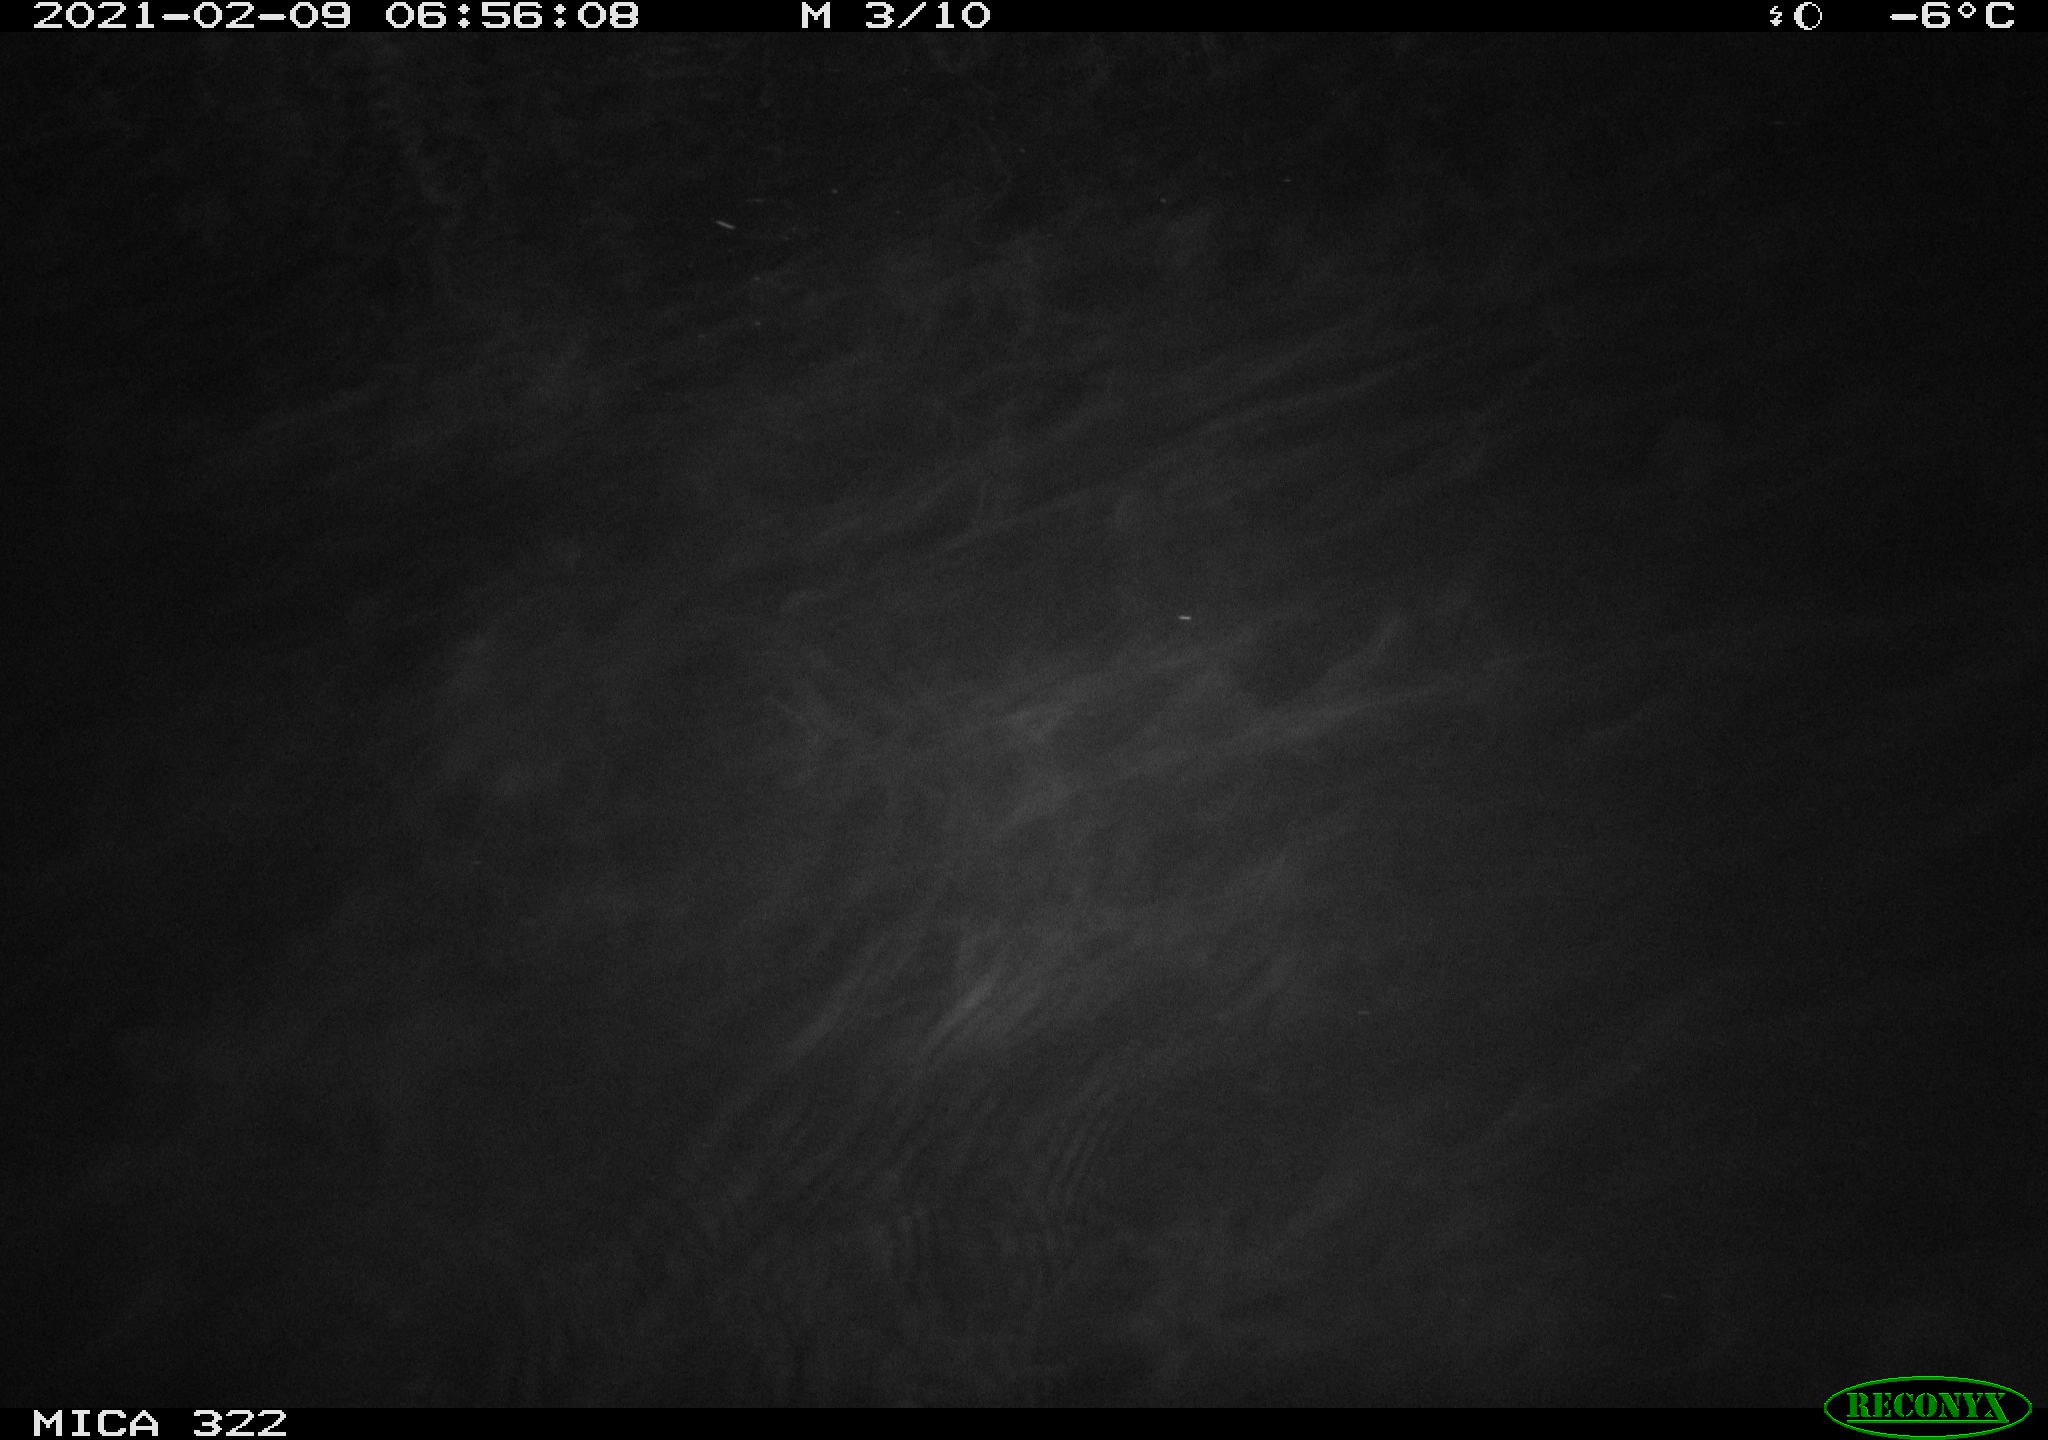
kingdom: Animalia
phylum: Chordata
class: Aves
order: Anseriformes
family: Anatidae
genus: Anas
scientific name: Anas platyrhynchos
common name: Mallard
